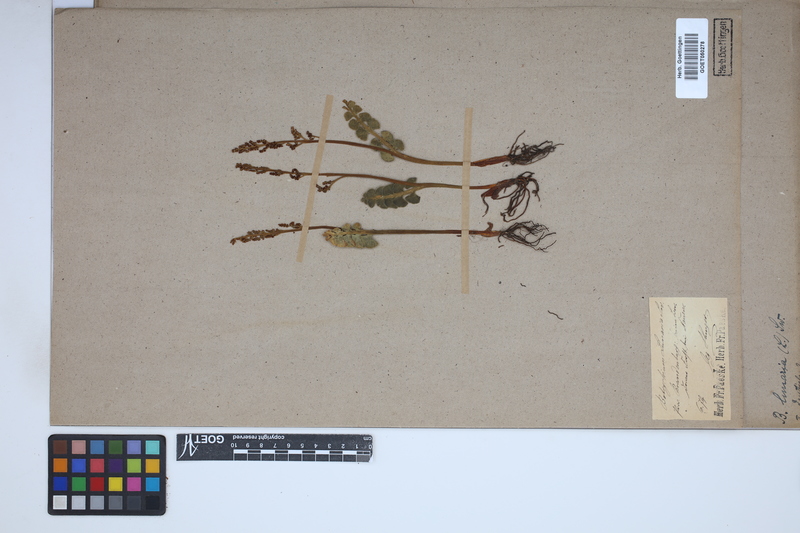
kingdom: Plantae
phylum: Tracheophyta
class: Polypodiopsida
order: Ophioglossales
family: Ophioglossaceae
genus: Botrychium
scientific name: Botrychium lunaria
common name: Moonwort
